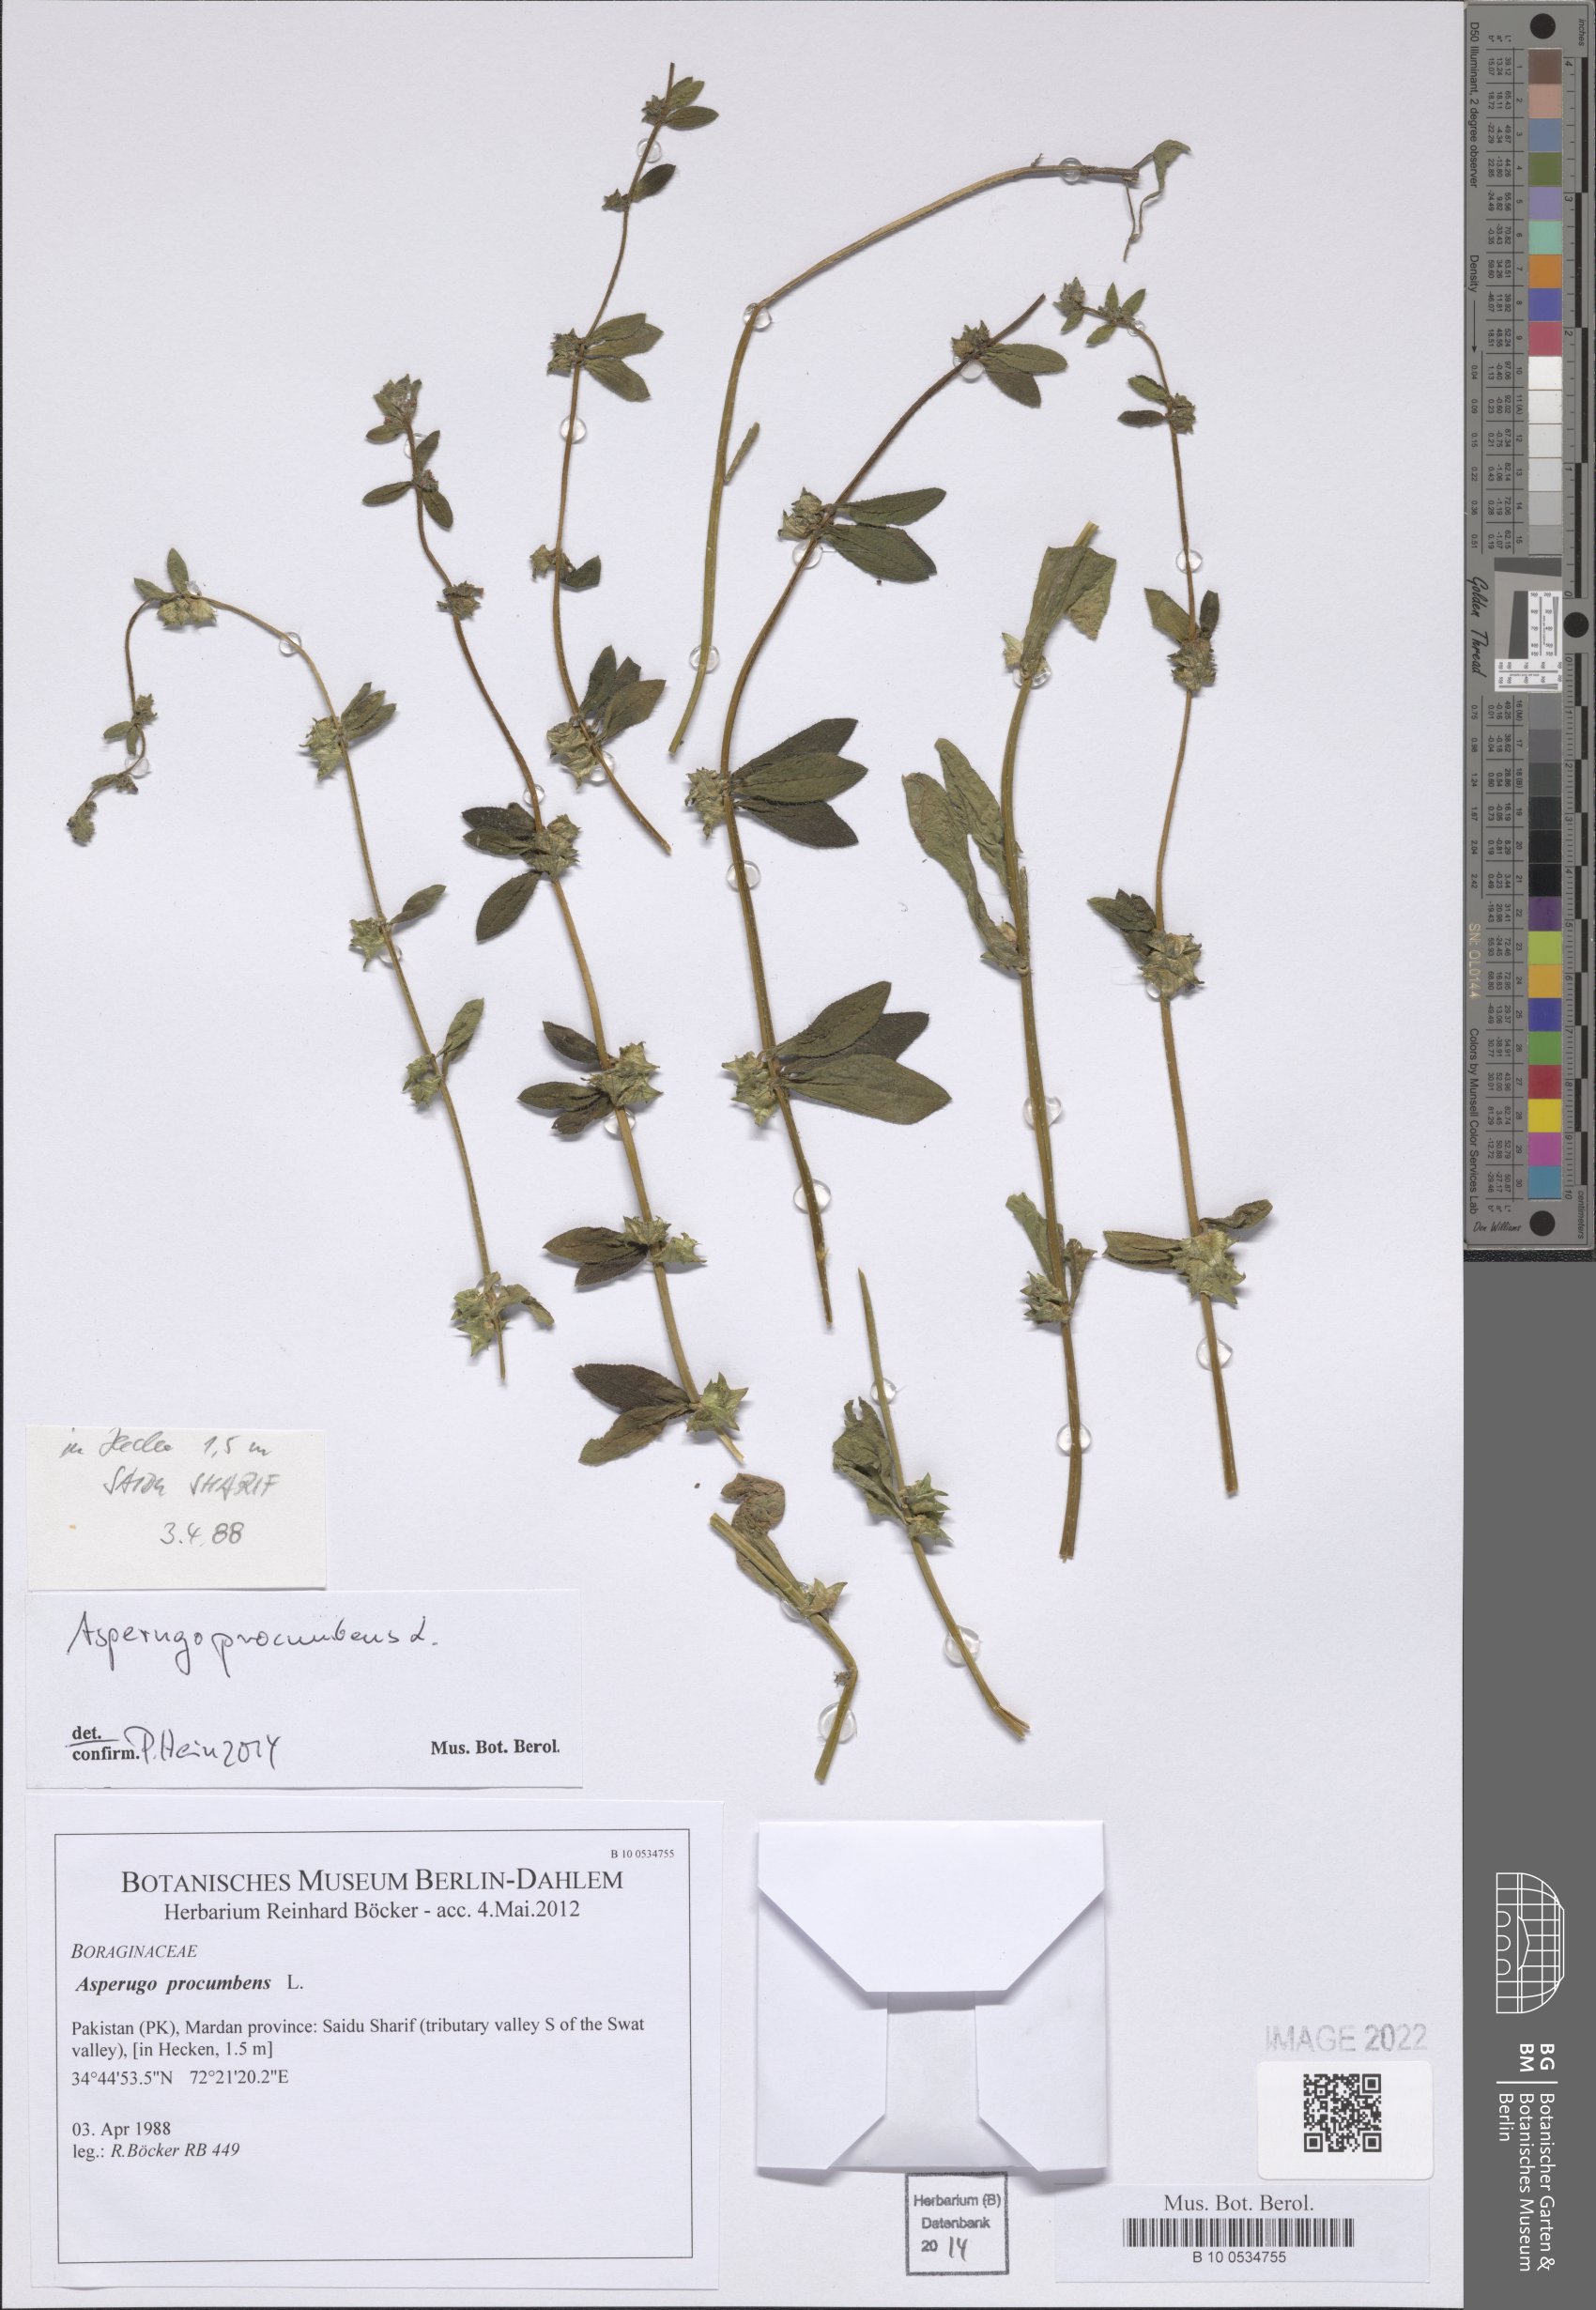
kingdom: Plantae
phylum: Tracheophyta
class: Magnoliopsida
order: Boraginales
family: Boraginaceae
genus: Asperugo
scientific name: Asperugo procumbens
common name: Madwort
